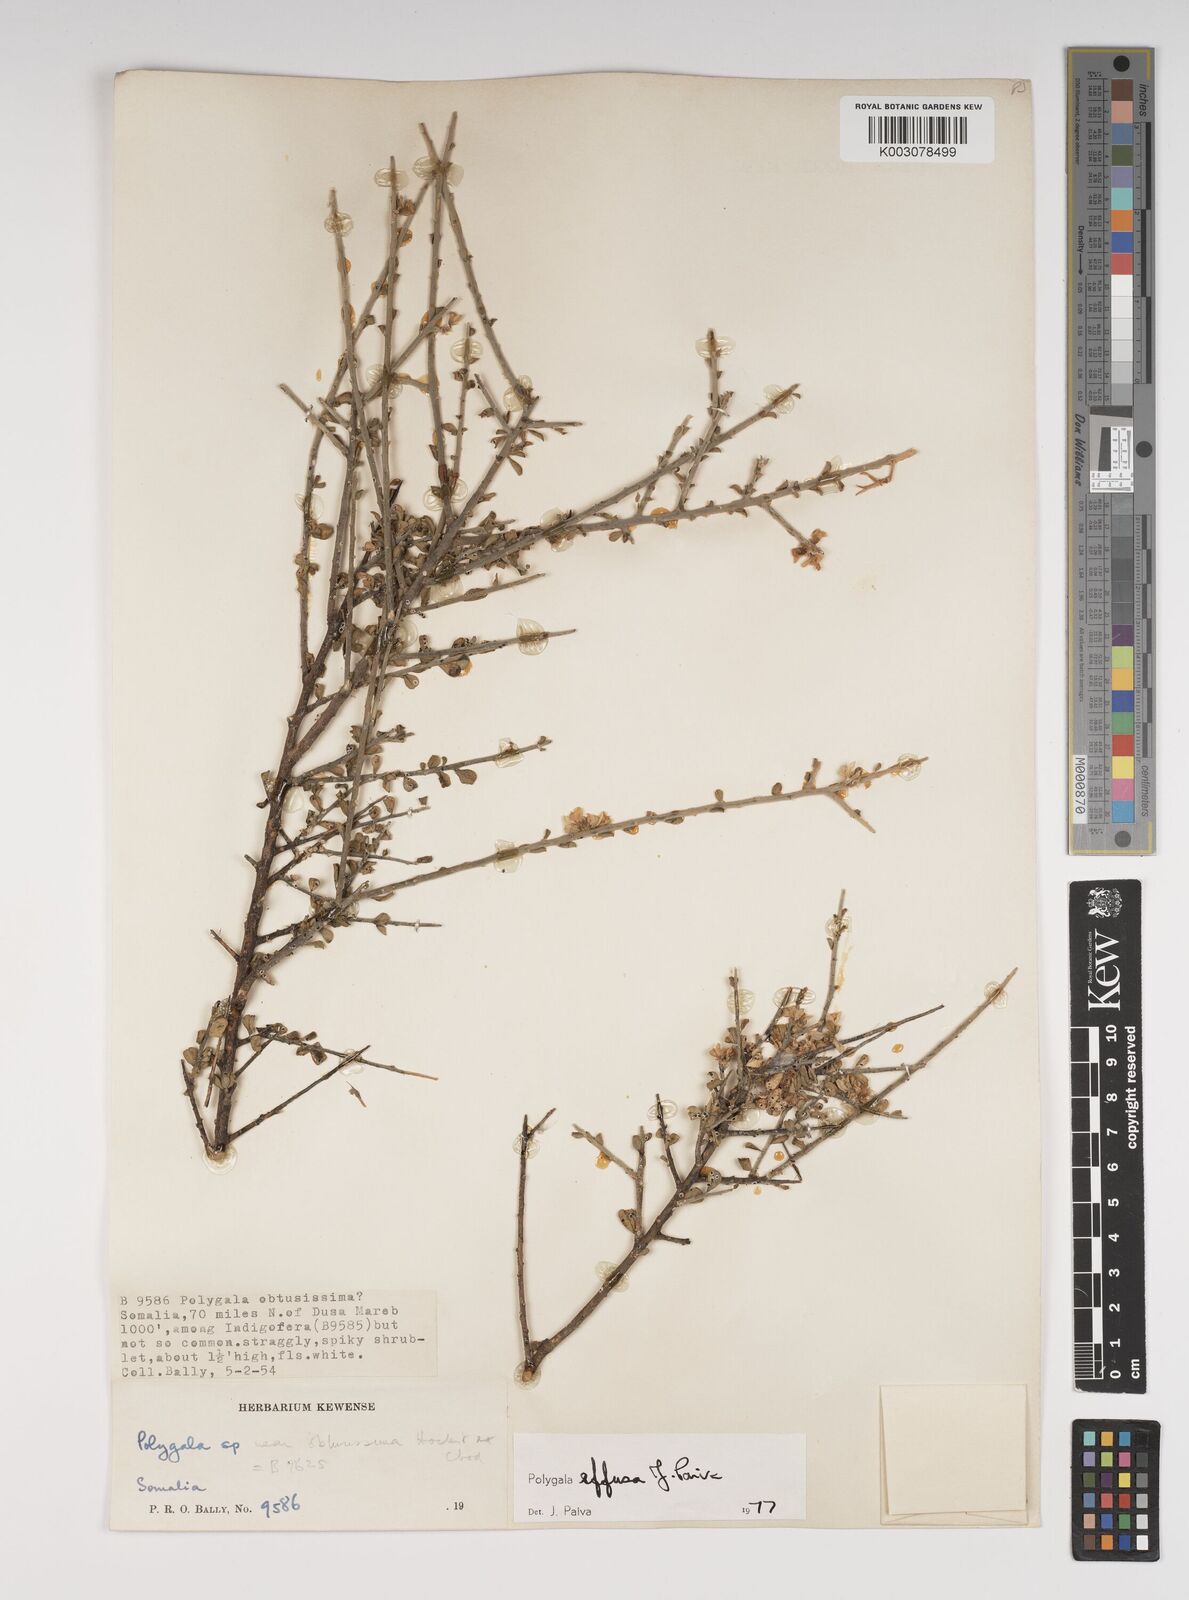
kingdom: Plantae
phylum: Tracheophyta
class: Magnoliopsida
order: Fabales
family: Polygalaceae
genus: Polygala
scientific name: Polygala effusa
